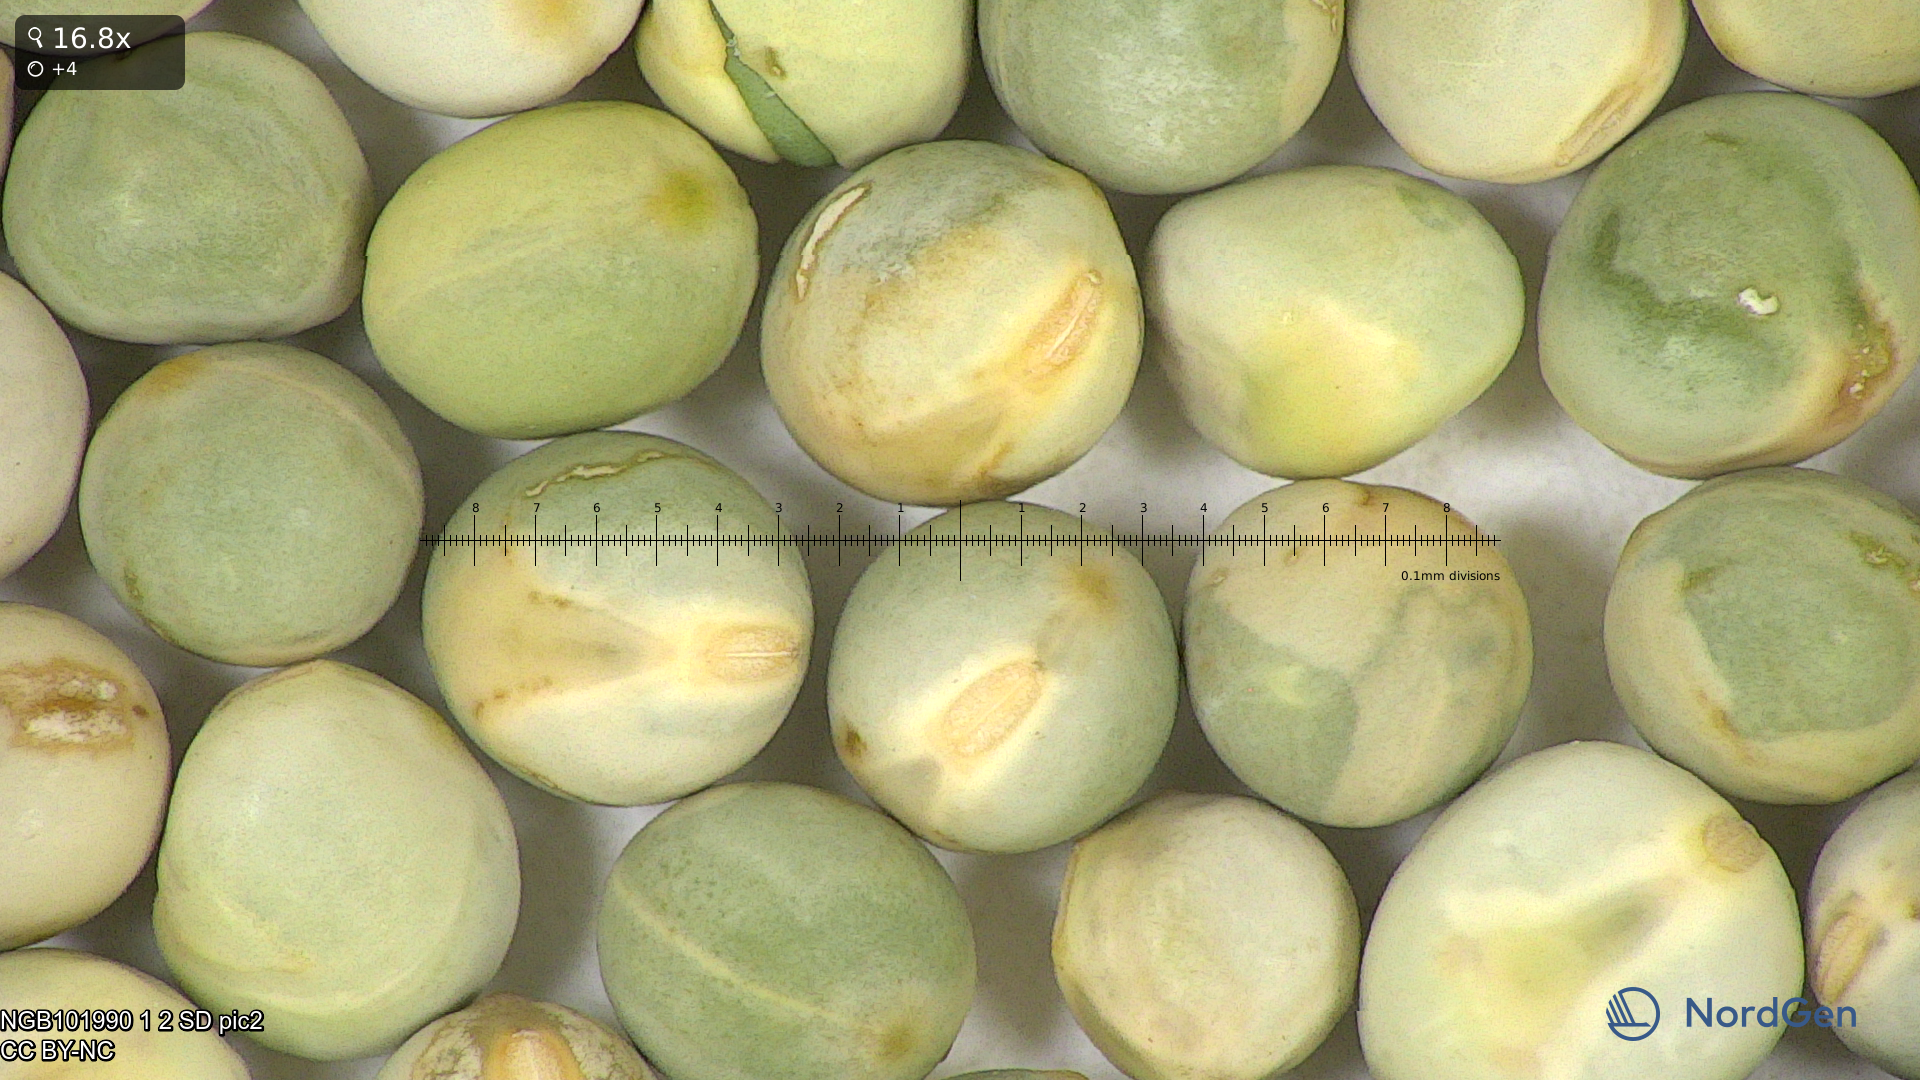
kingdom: Plantae
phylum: Tracheophyta
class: Magnoliopsida
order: Fabales
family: Fabaceae
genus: Lathyrus
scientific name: Lathyrus oleraceus
